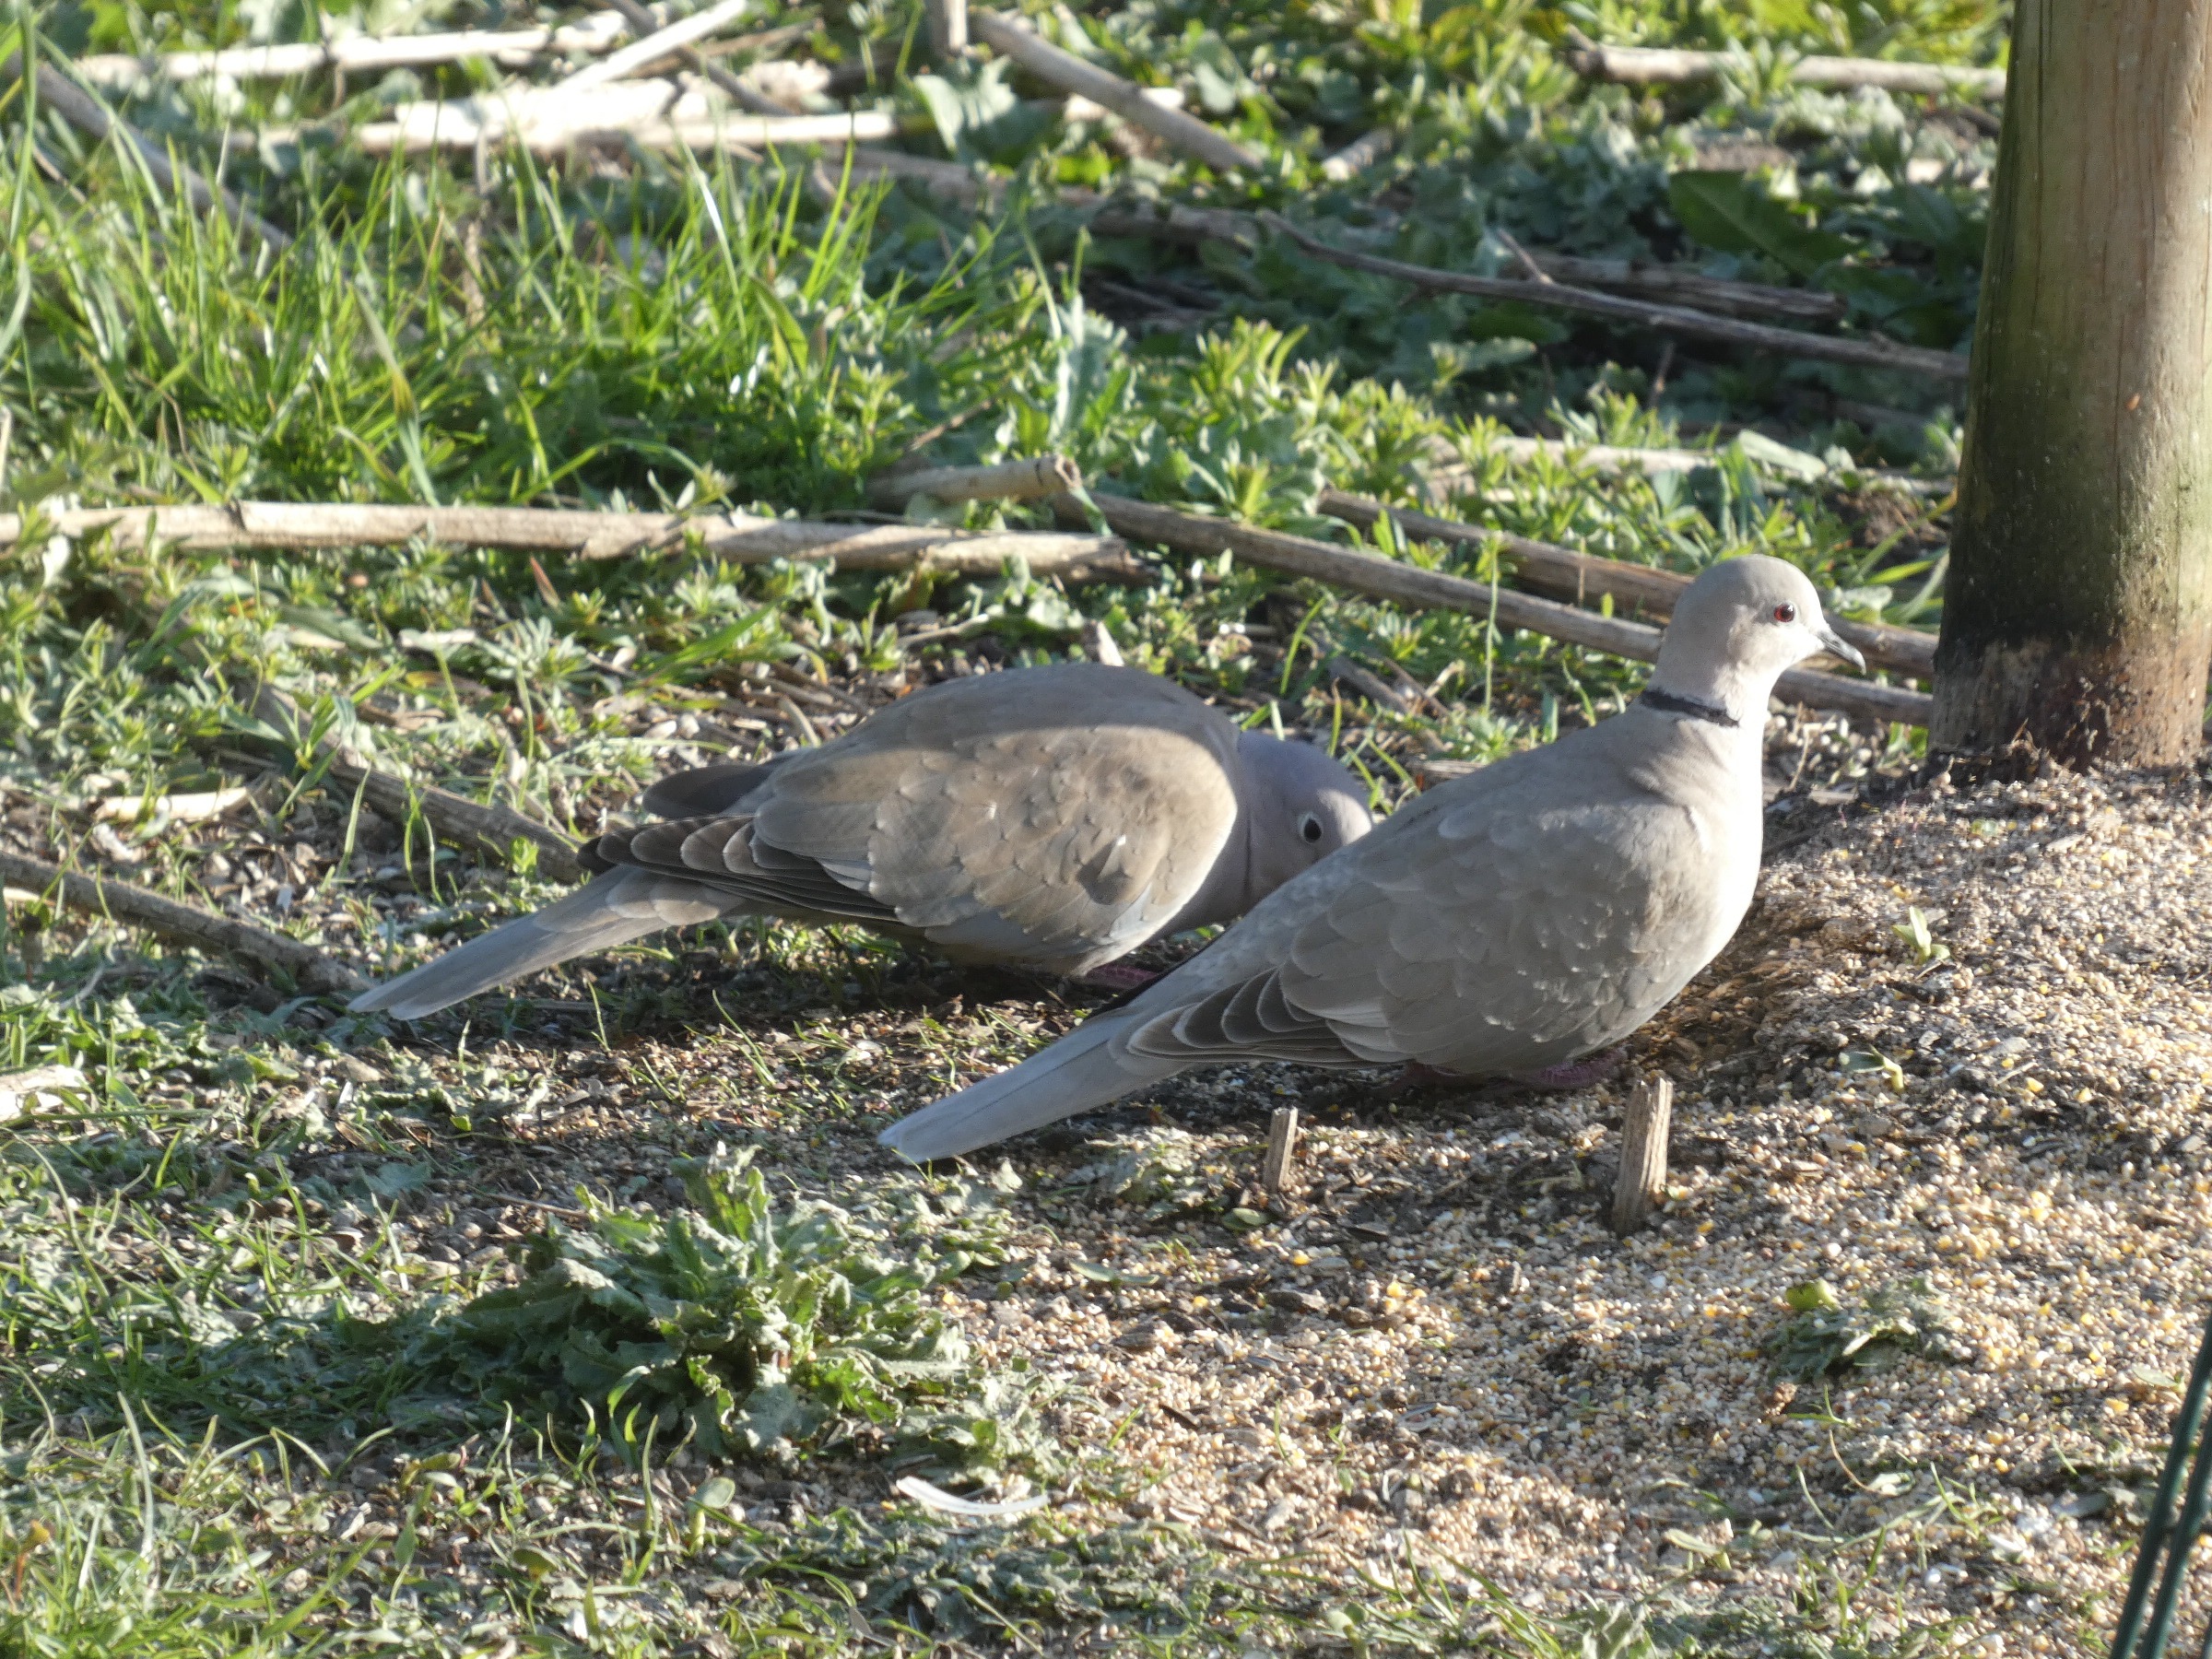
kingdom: Animalia
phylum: Chordata
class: Aves
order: Columbiformes
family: Columbidae
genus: Streptopelia
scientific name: Streptopelia decaocto
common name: Tyrkerdue
